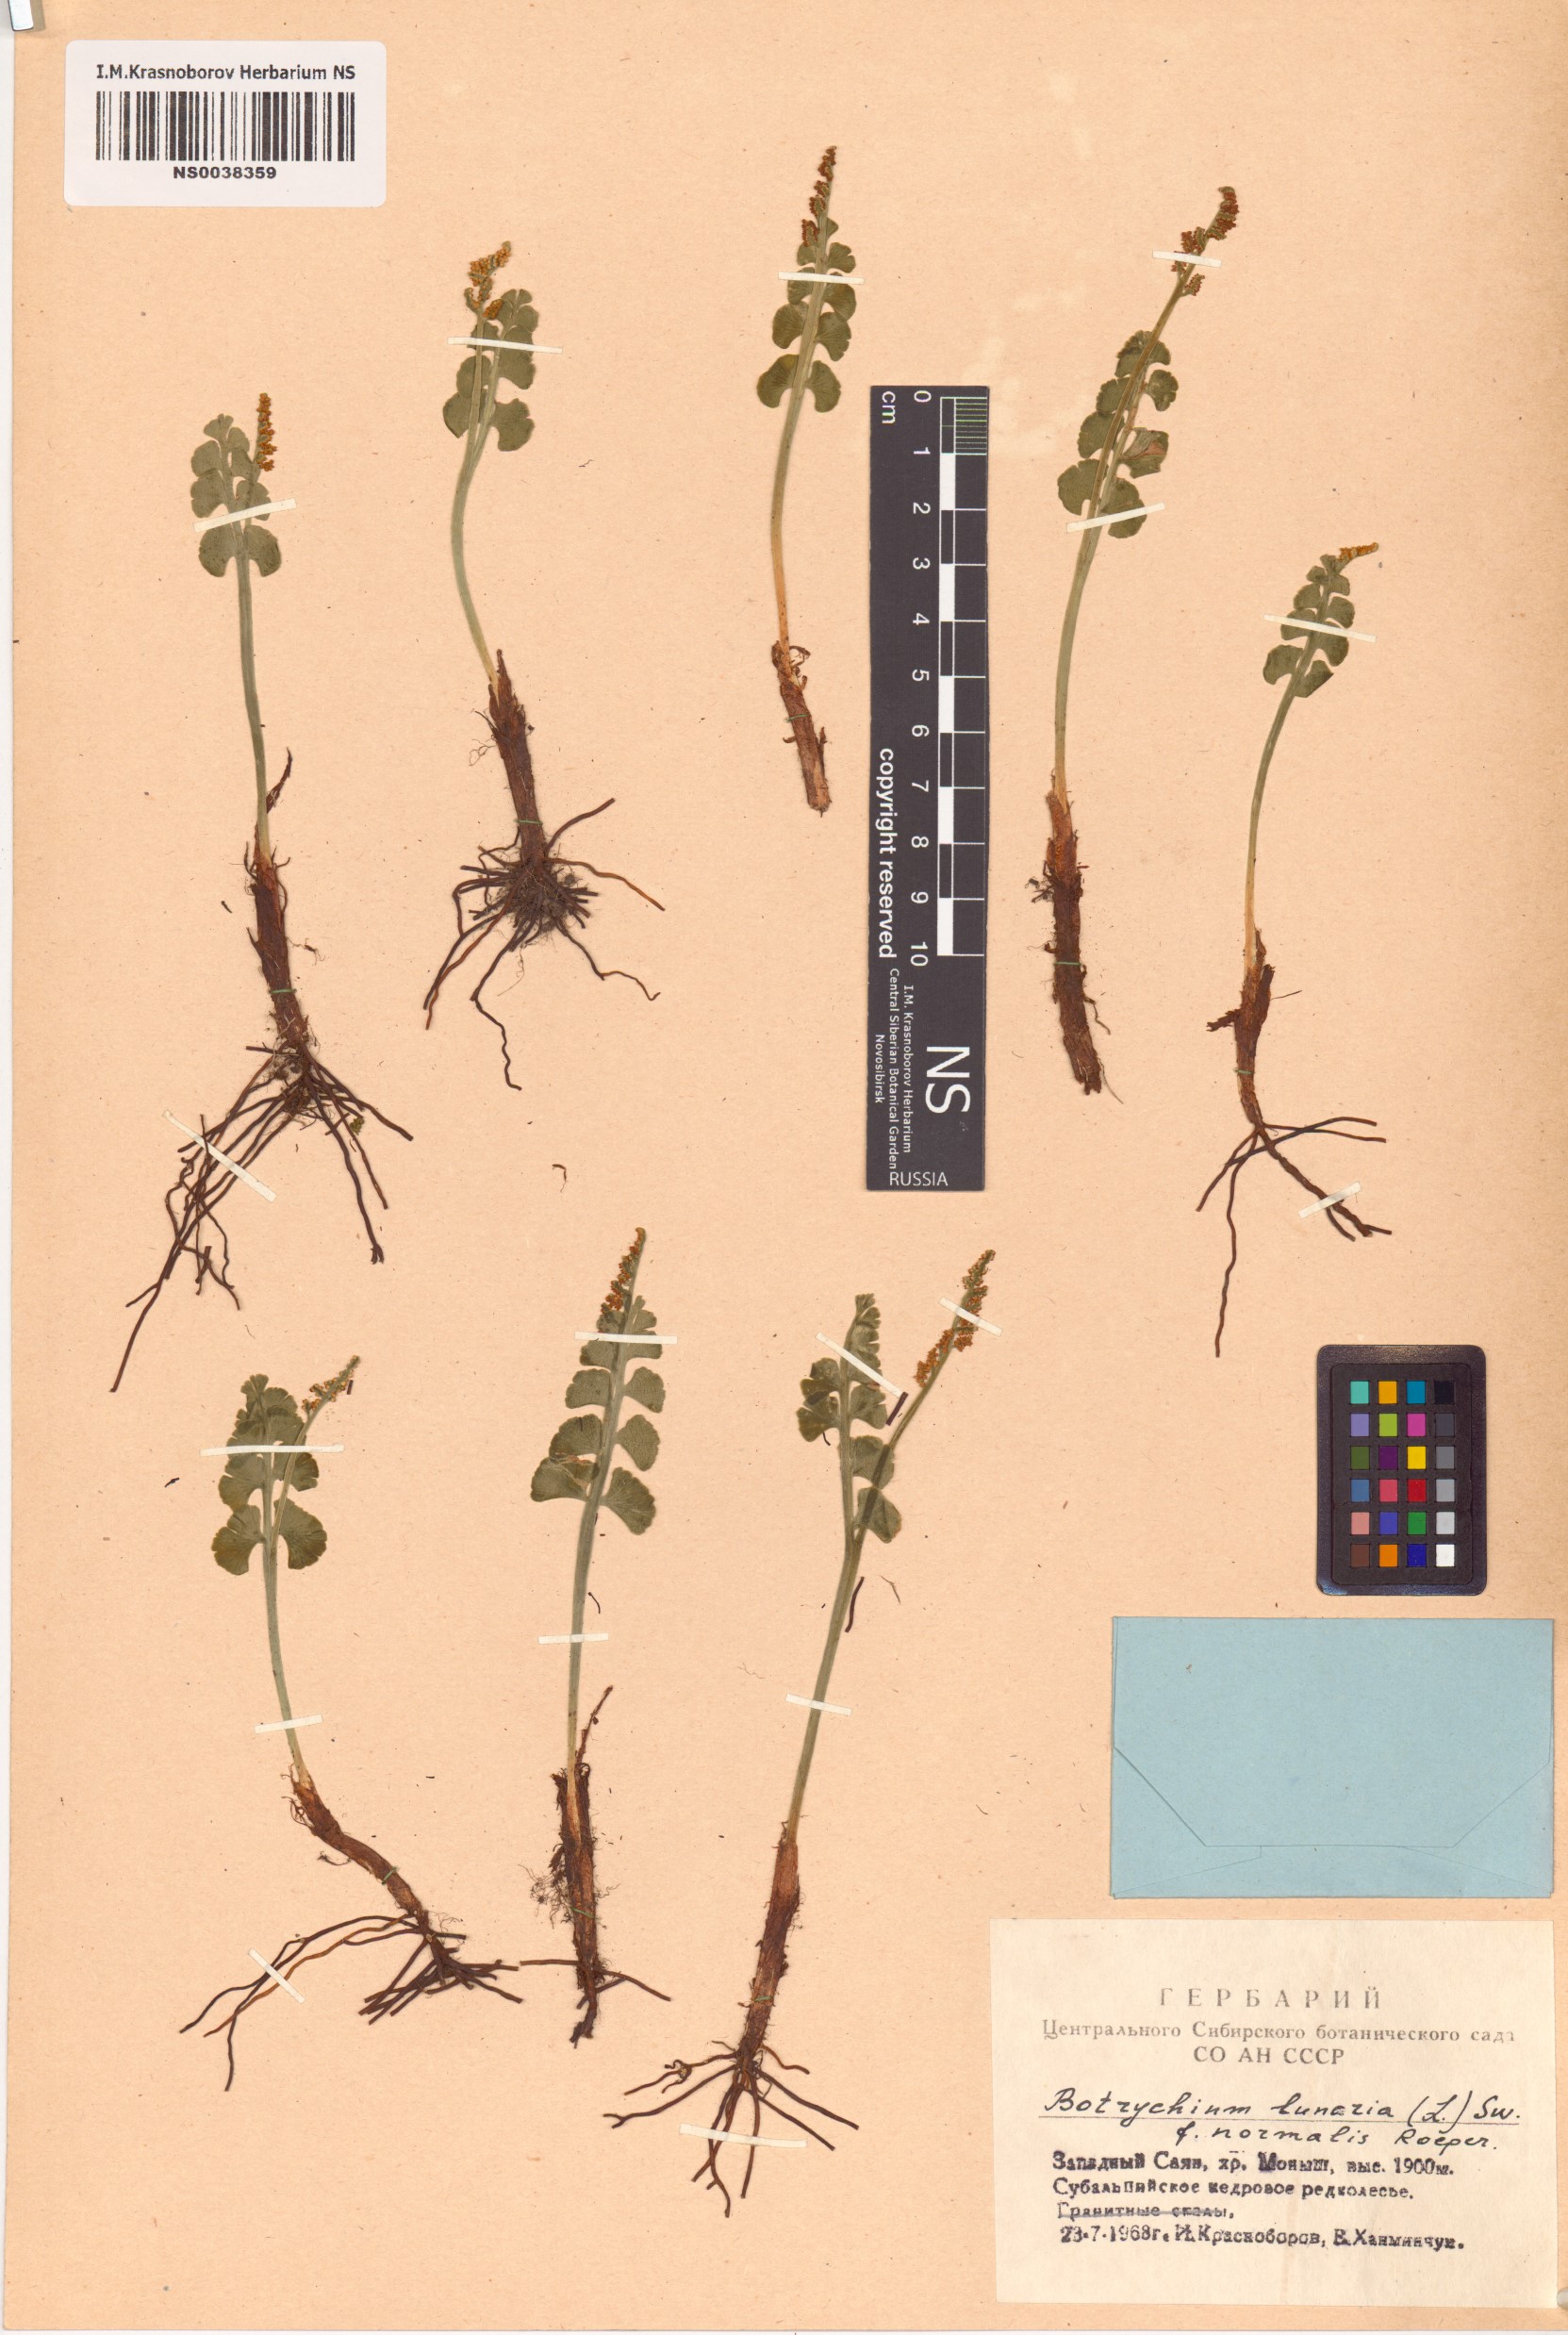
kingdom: Plantae
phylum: Tracheophyta
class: Polypodiopsida
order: Ophioglossales
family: Ophioglossaceae
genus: Botrychium
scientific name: Botrychium lunaria
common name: Moonwort
